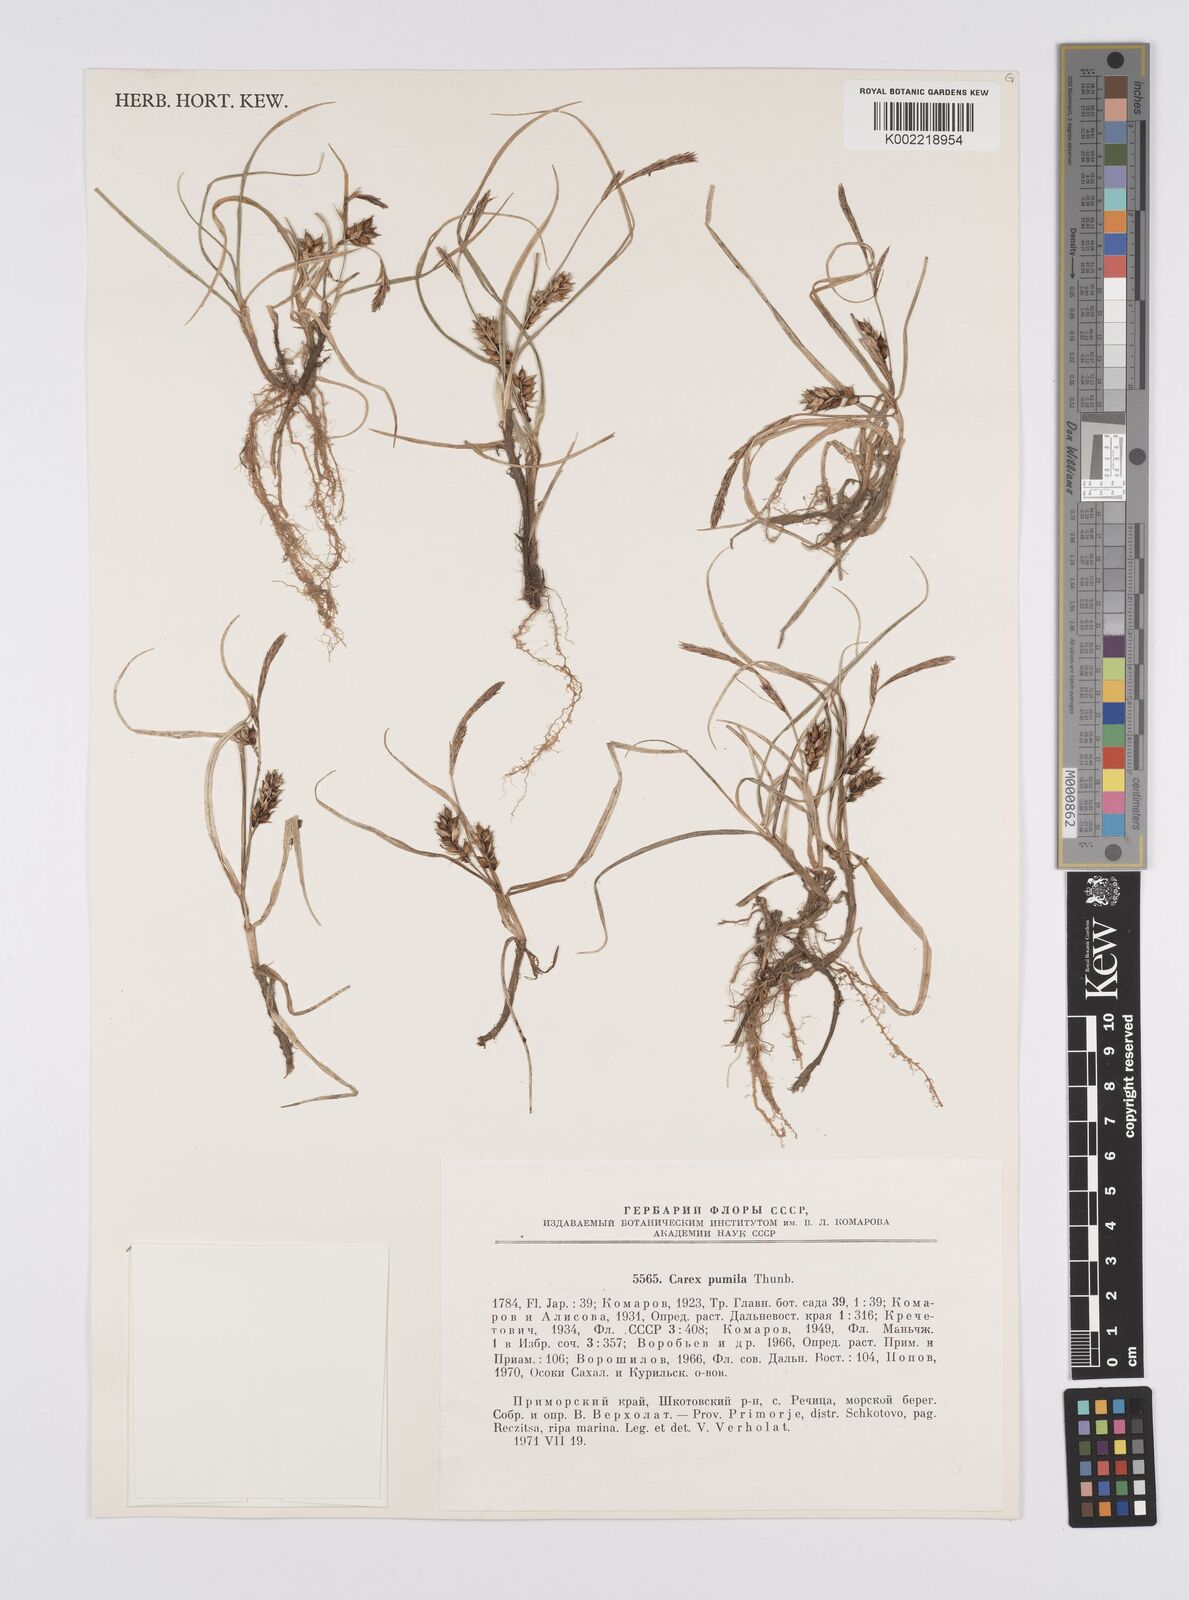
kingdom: Plantae
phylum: Tracheophyta
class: Liliopsida
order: Poales
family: Cyperaceae
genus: Carex
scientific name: Carex pumila
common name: Dwarf sedge
